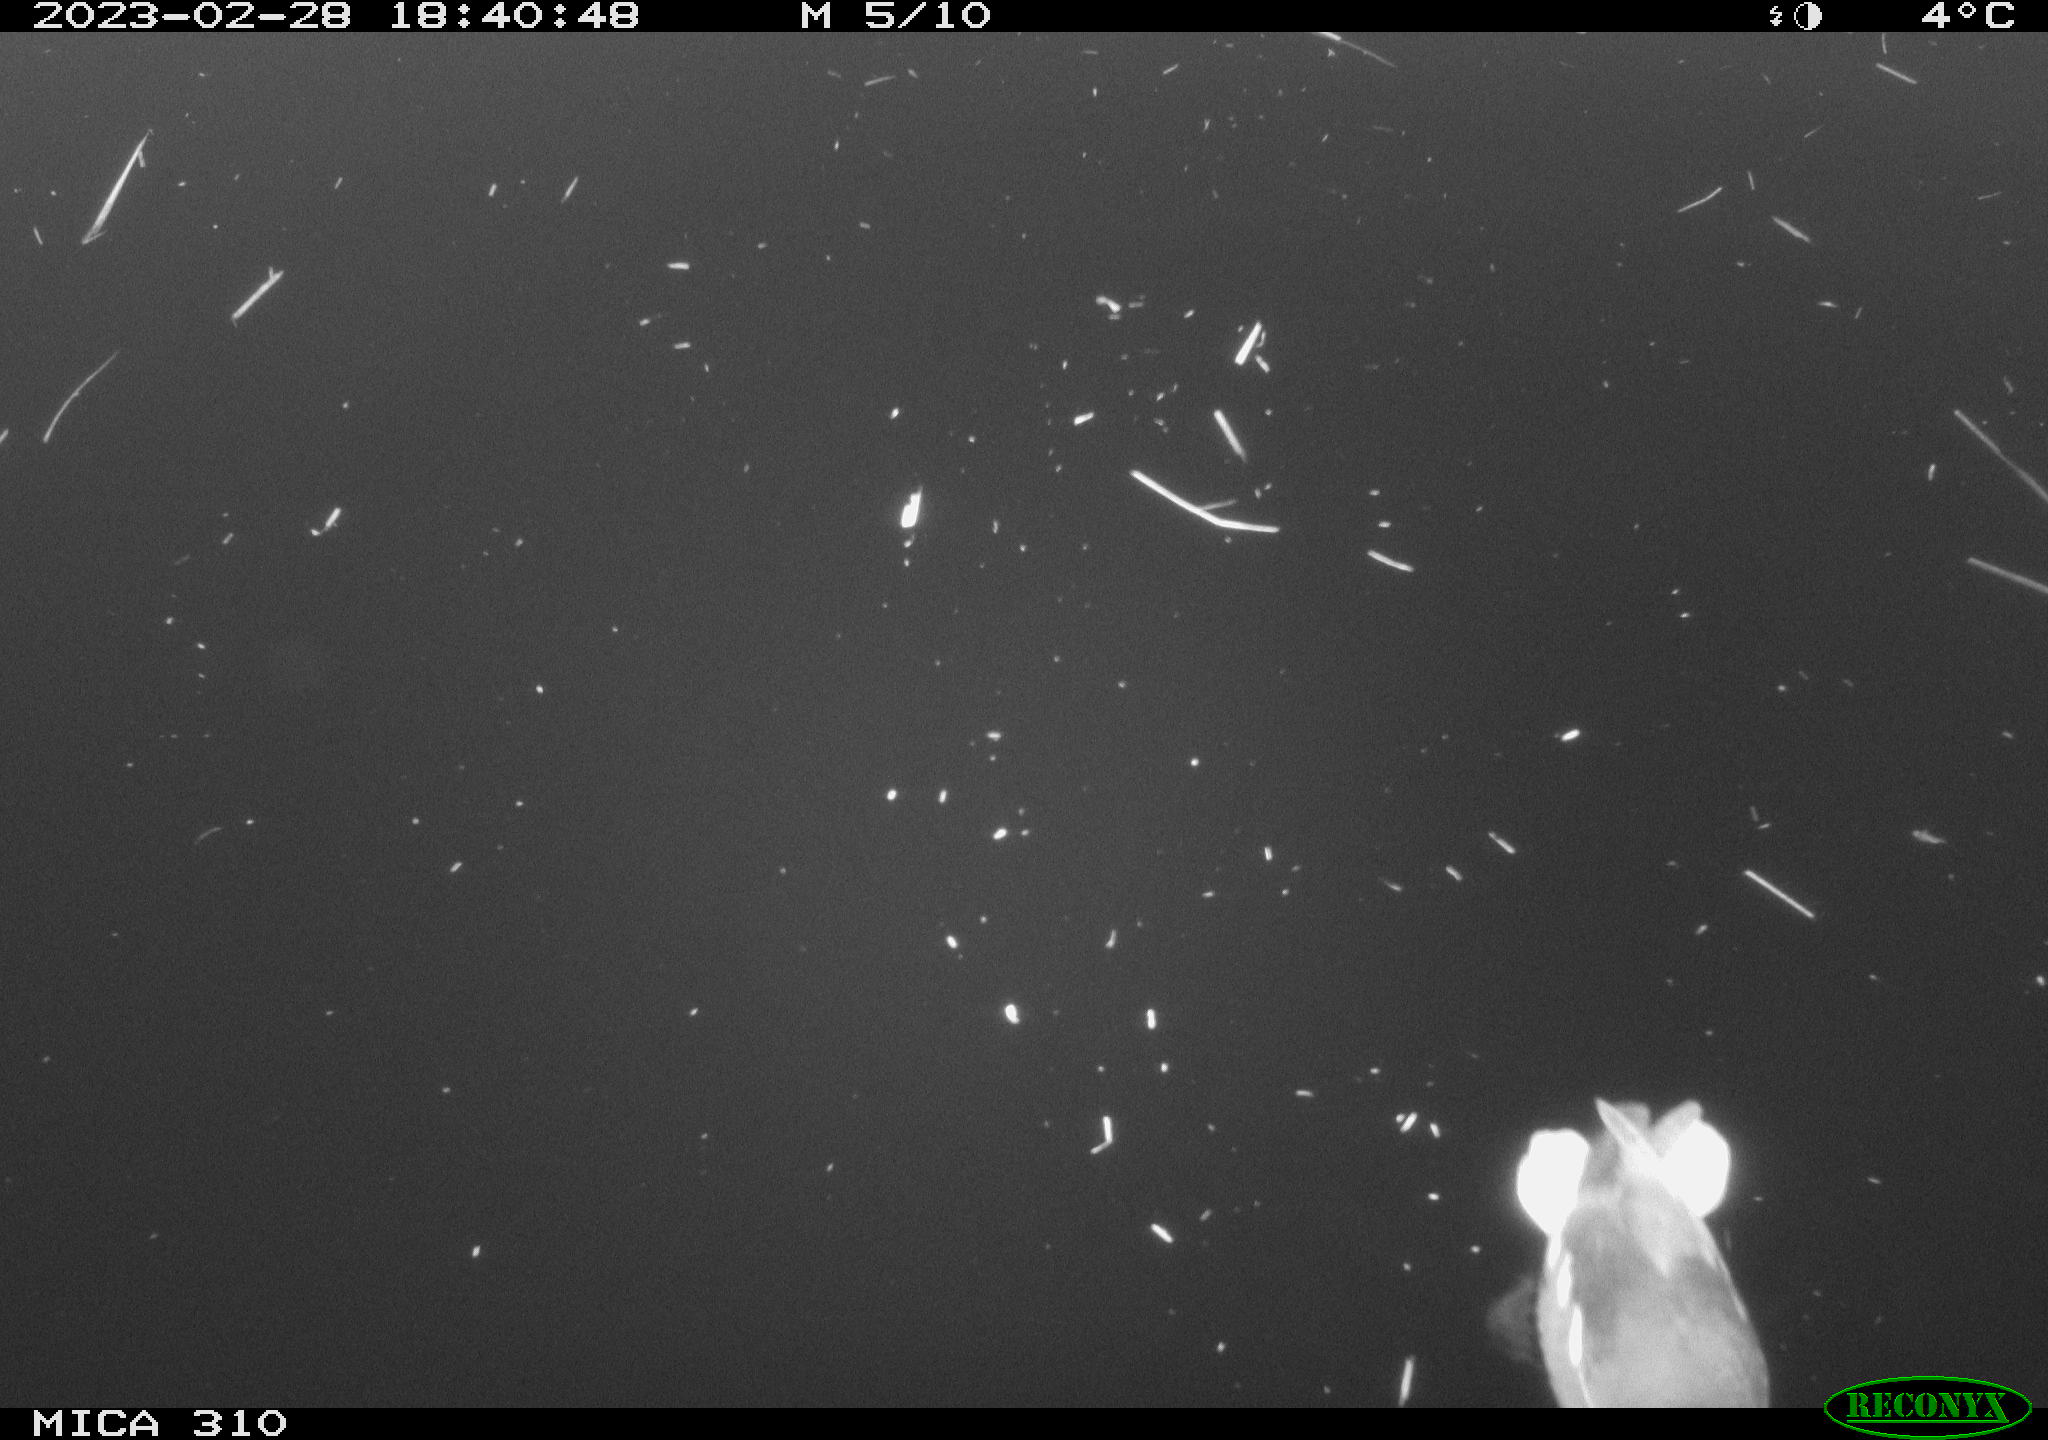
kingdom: Animalia
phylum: Chordata
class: Aves
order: Anseriformes
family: Anatidae
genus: Anas
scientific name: Anas
